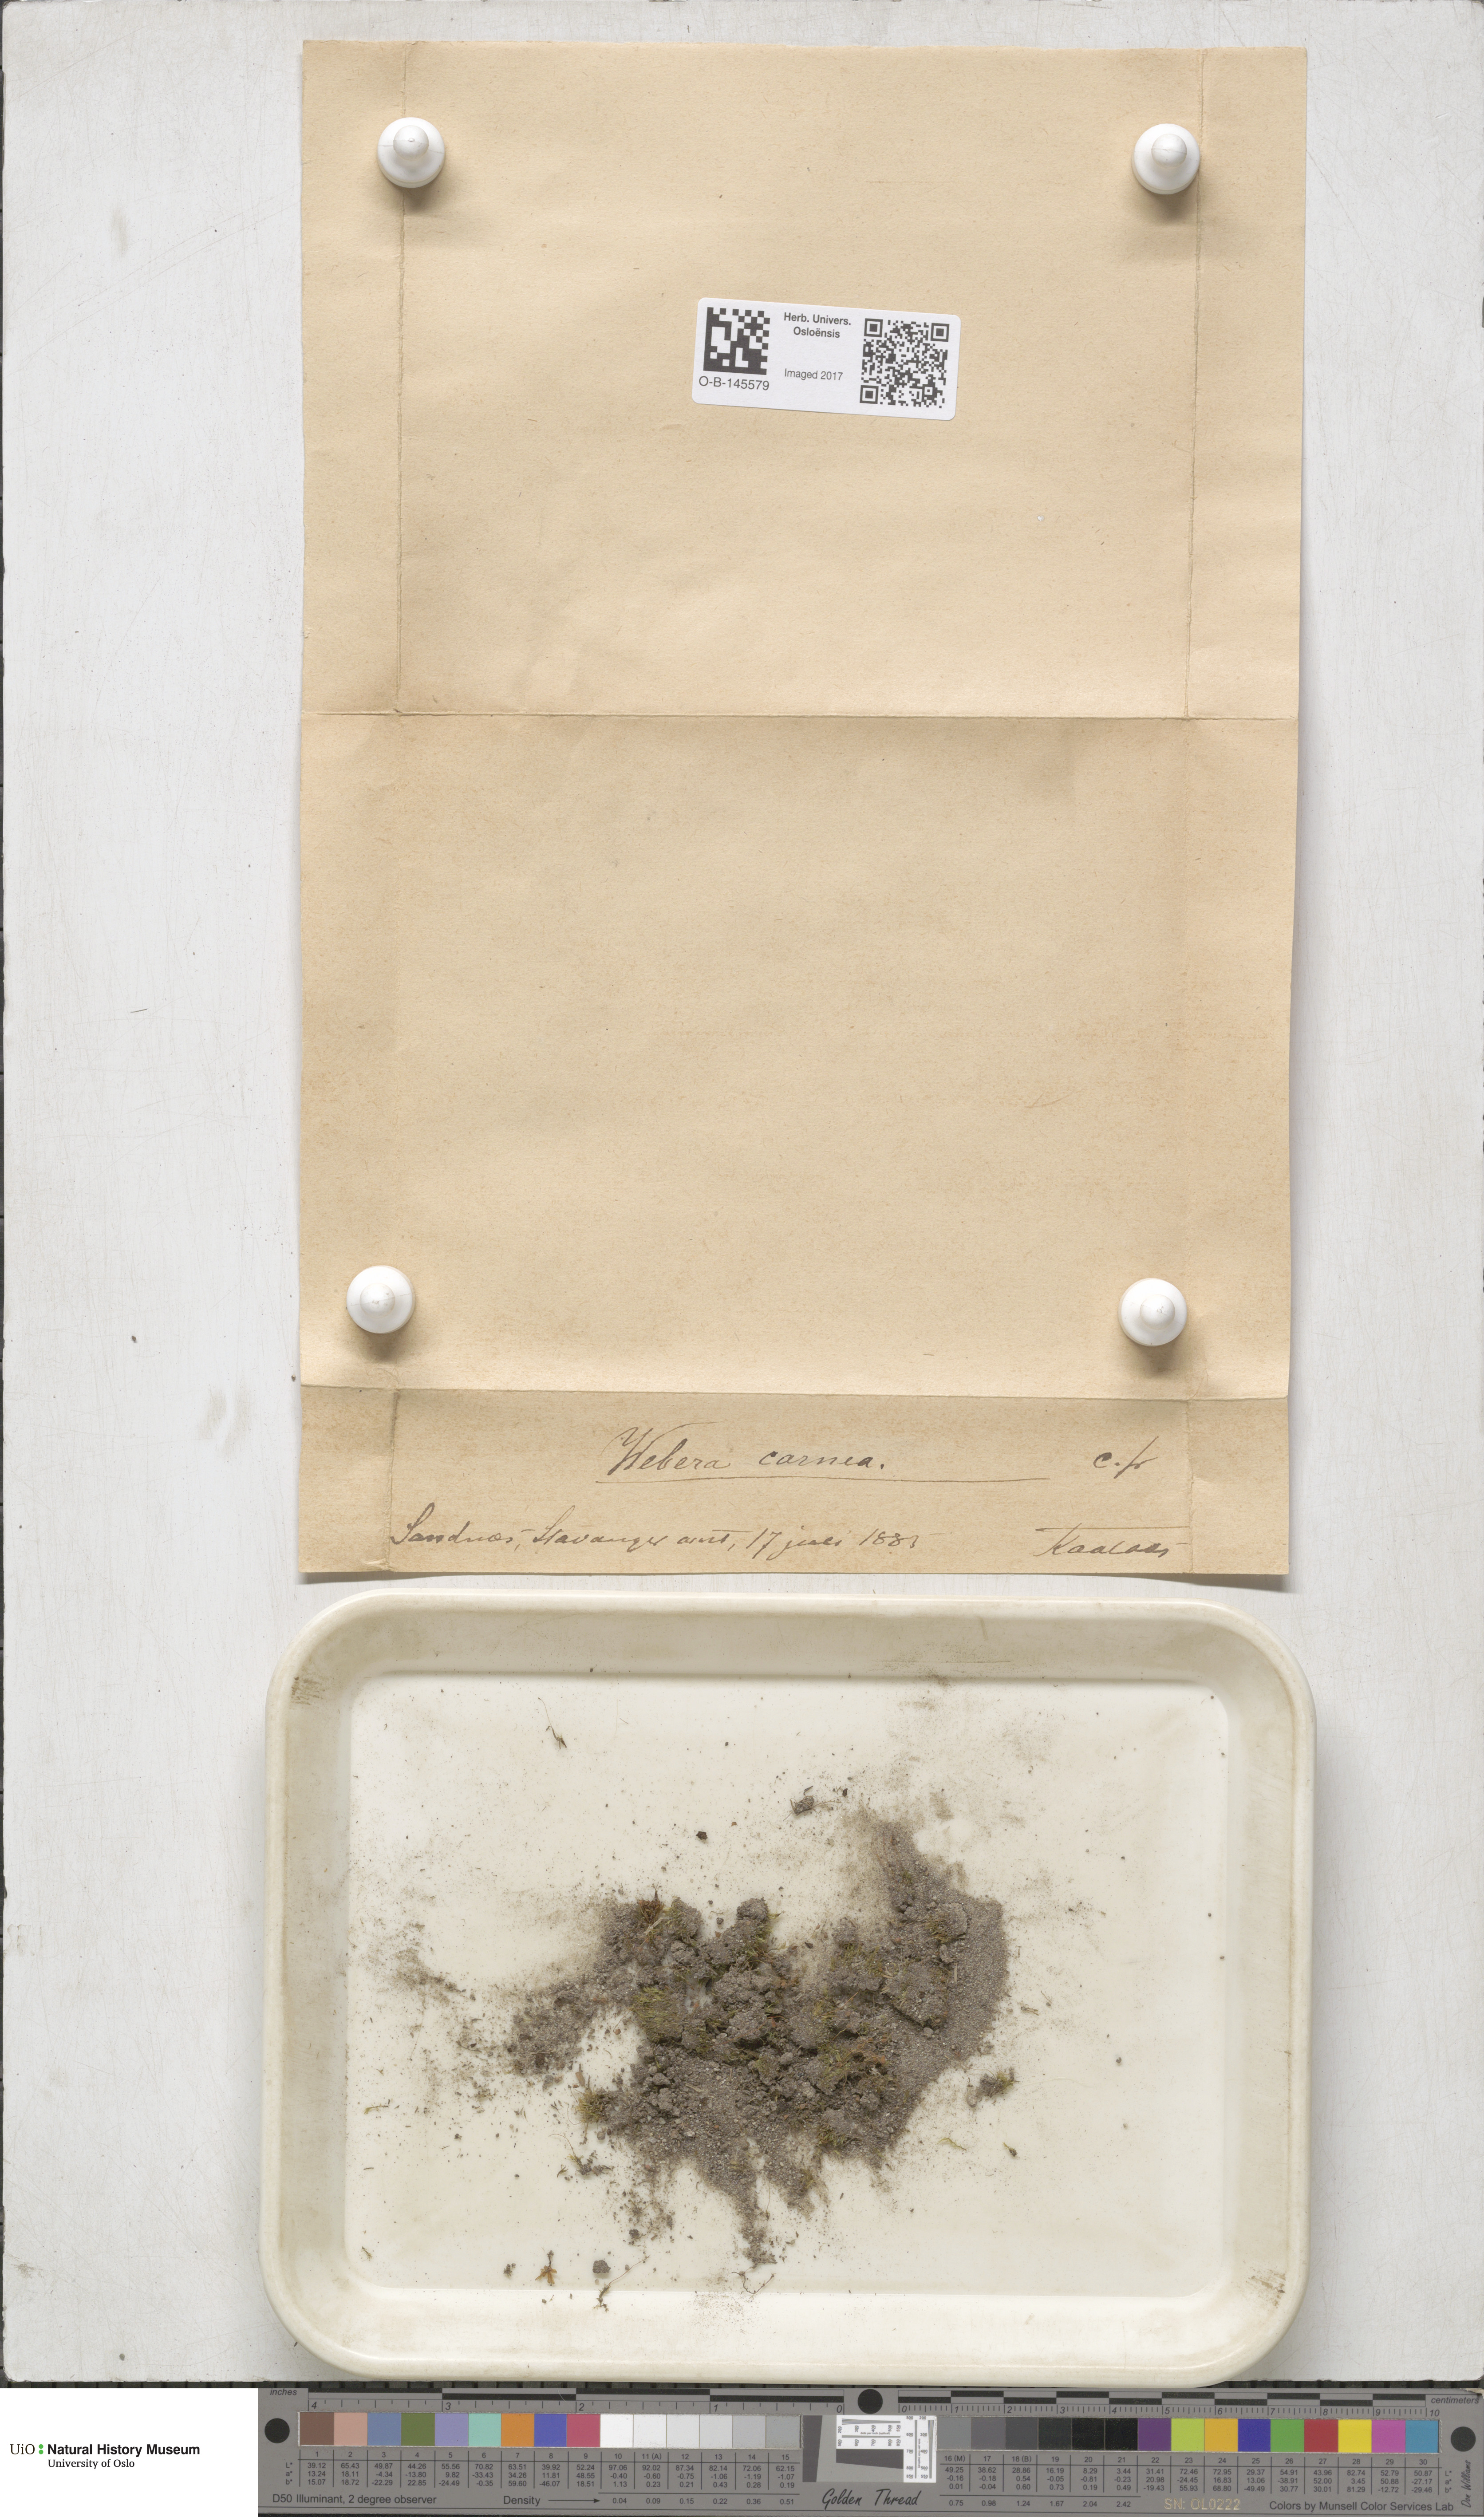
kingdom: Plantae
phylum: Bryophyta
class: Bryopsida
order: Bryales
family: Mniaceae
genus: Pohlia
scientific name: Pohlia melanodon
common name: Black-toothed nodding moss
